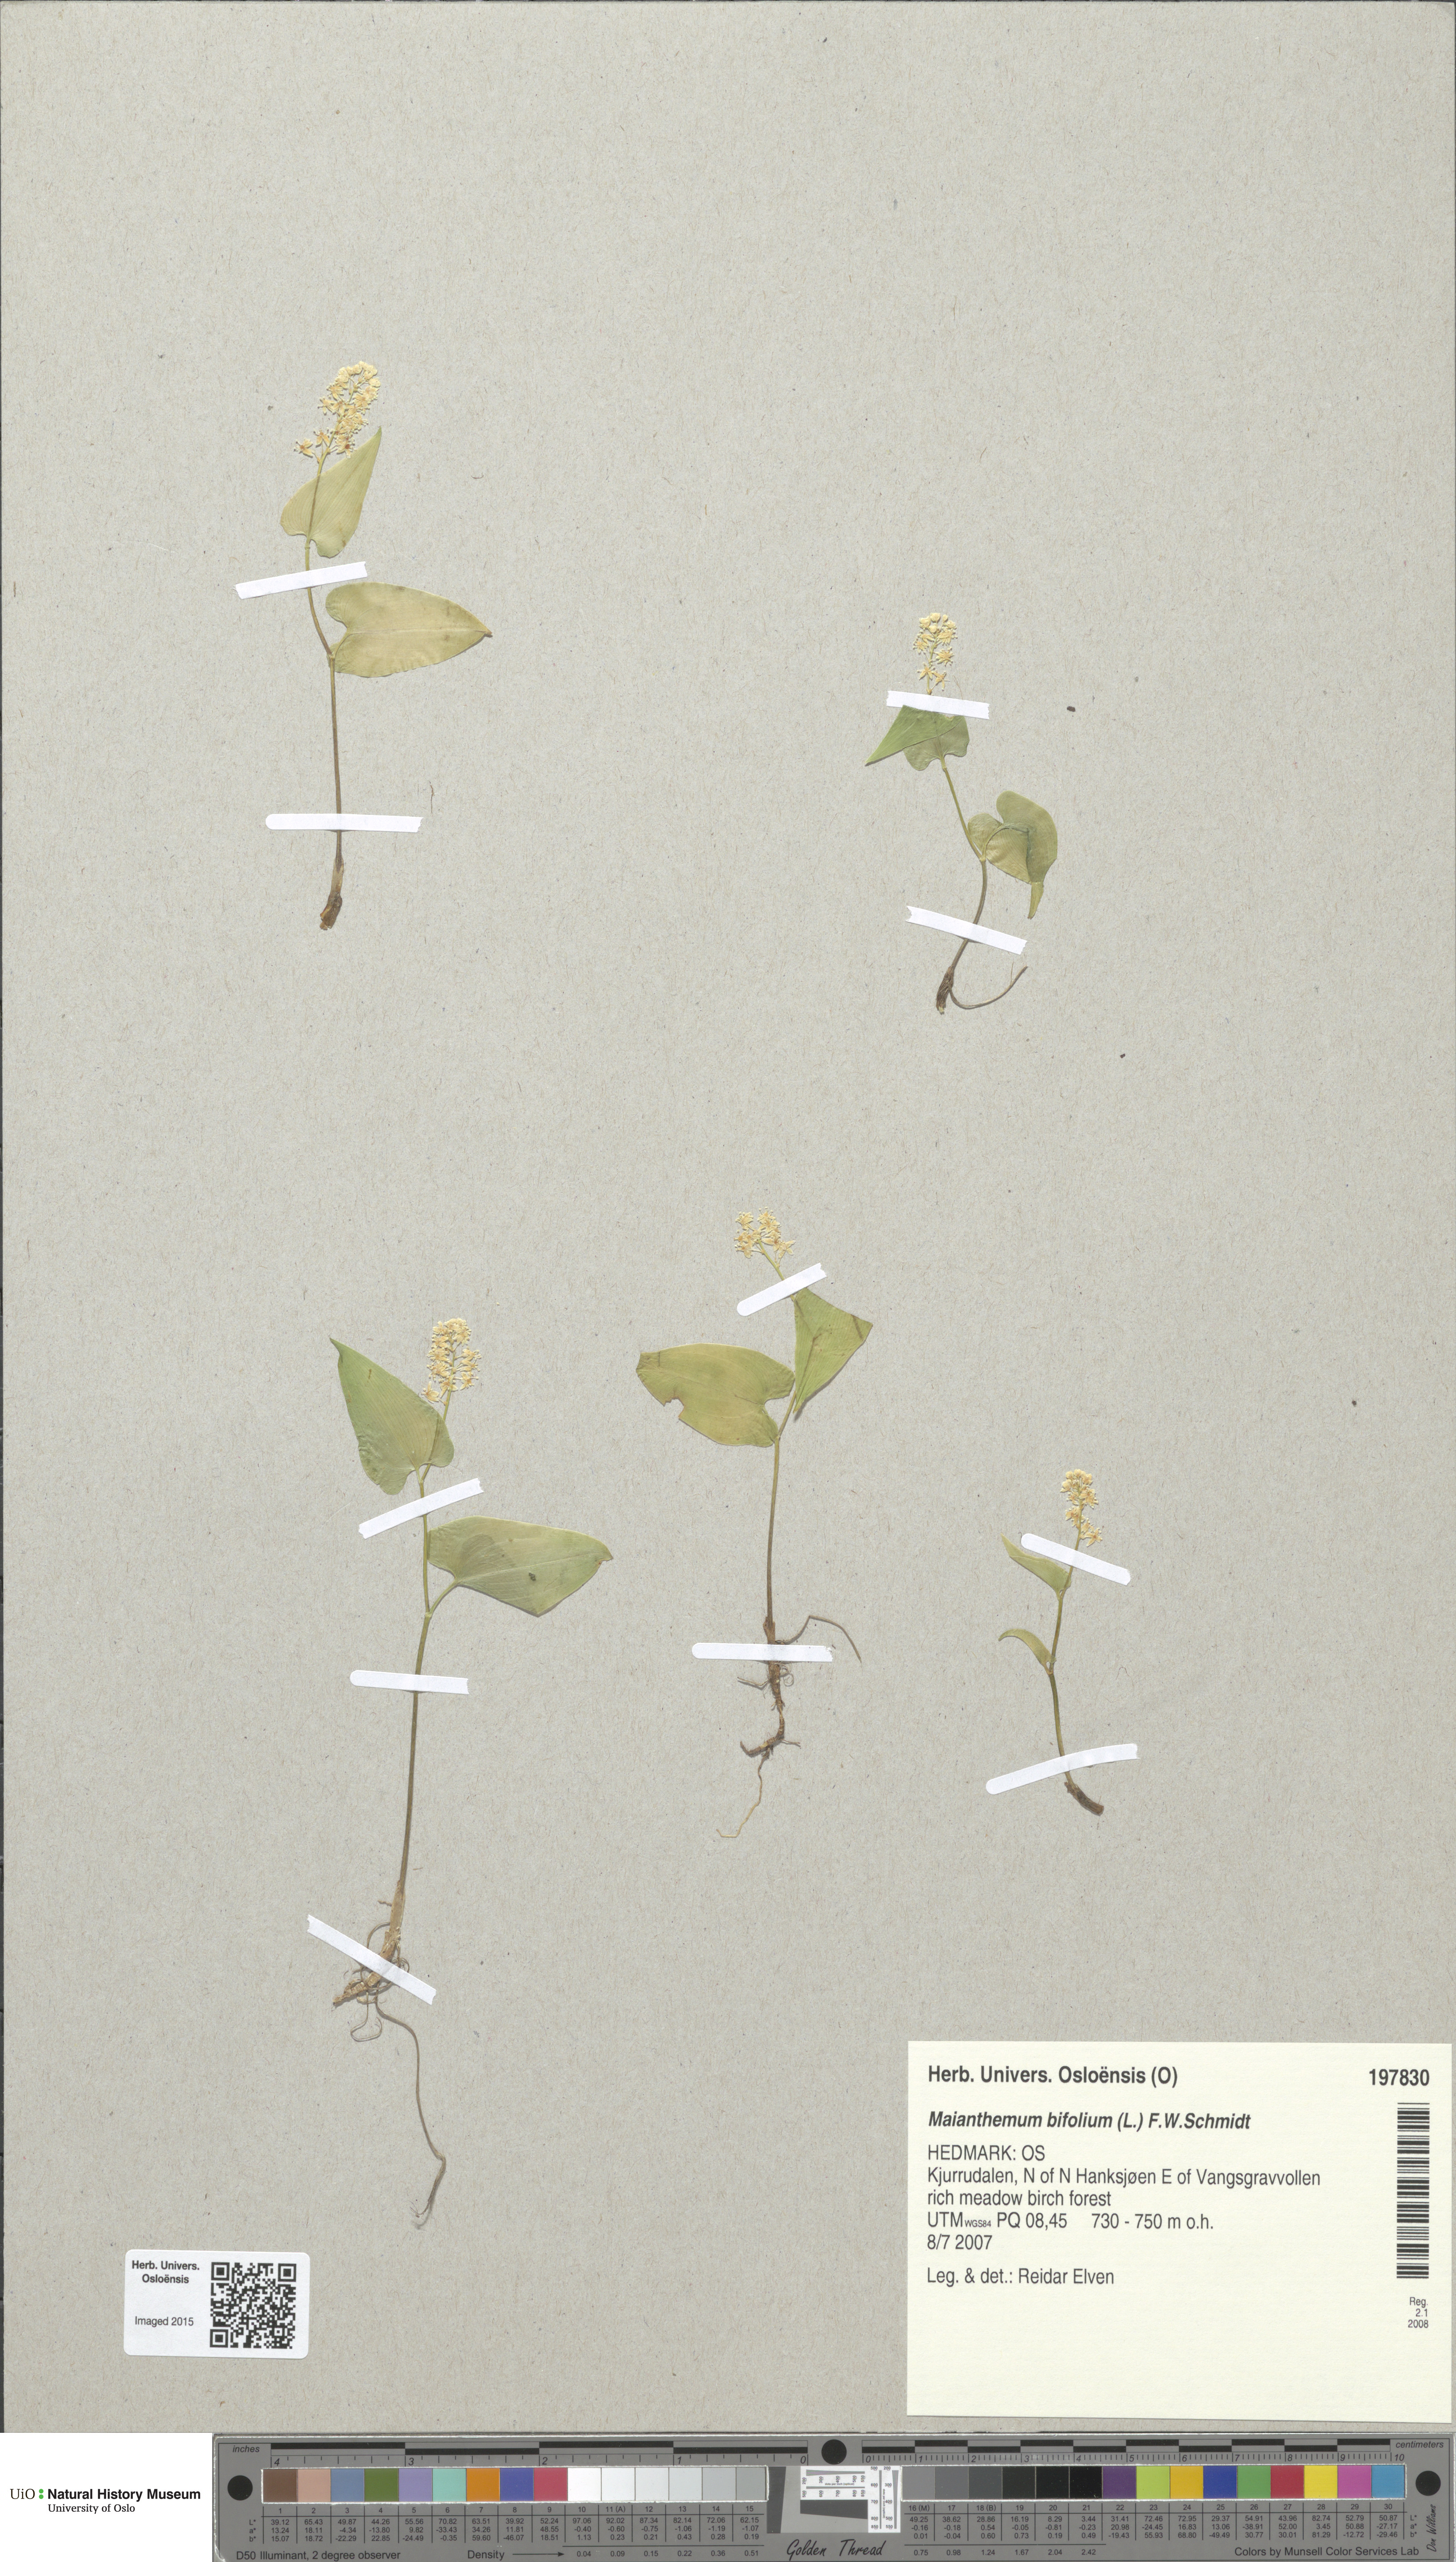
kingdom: Plantae
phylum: Tracheophyta
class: Liliopsida
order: Asparagales
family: Asparagaceae
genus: Maianthemum
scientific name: Maianthemum bifolium
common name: May lily
